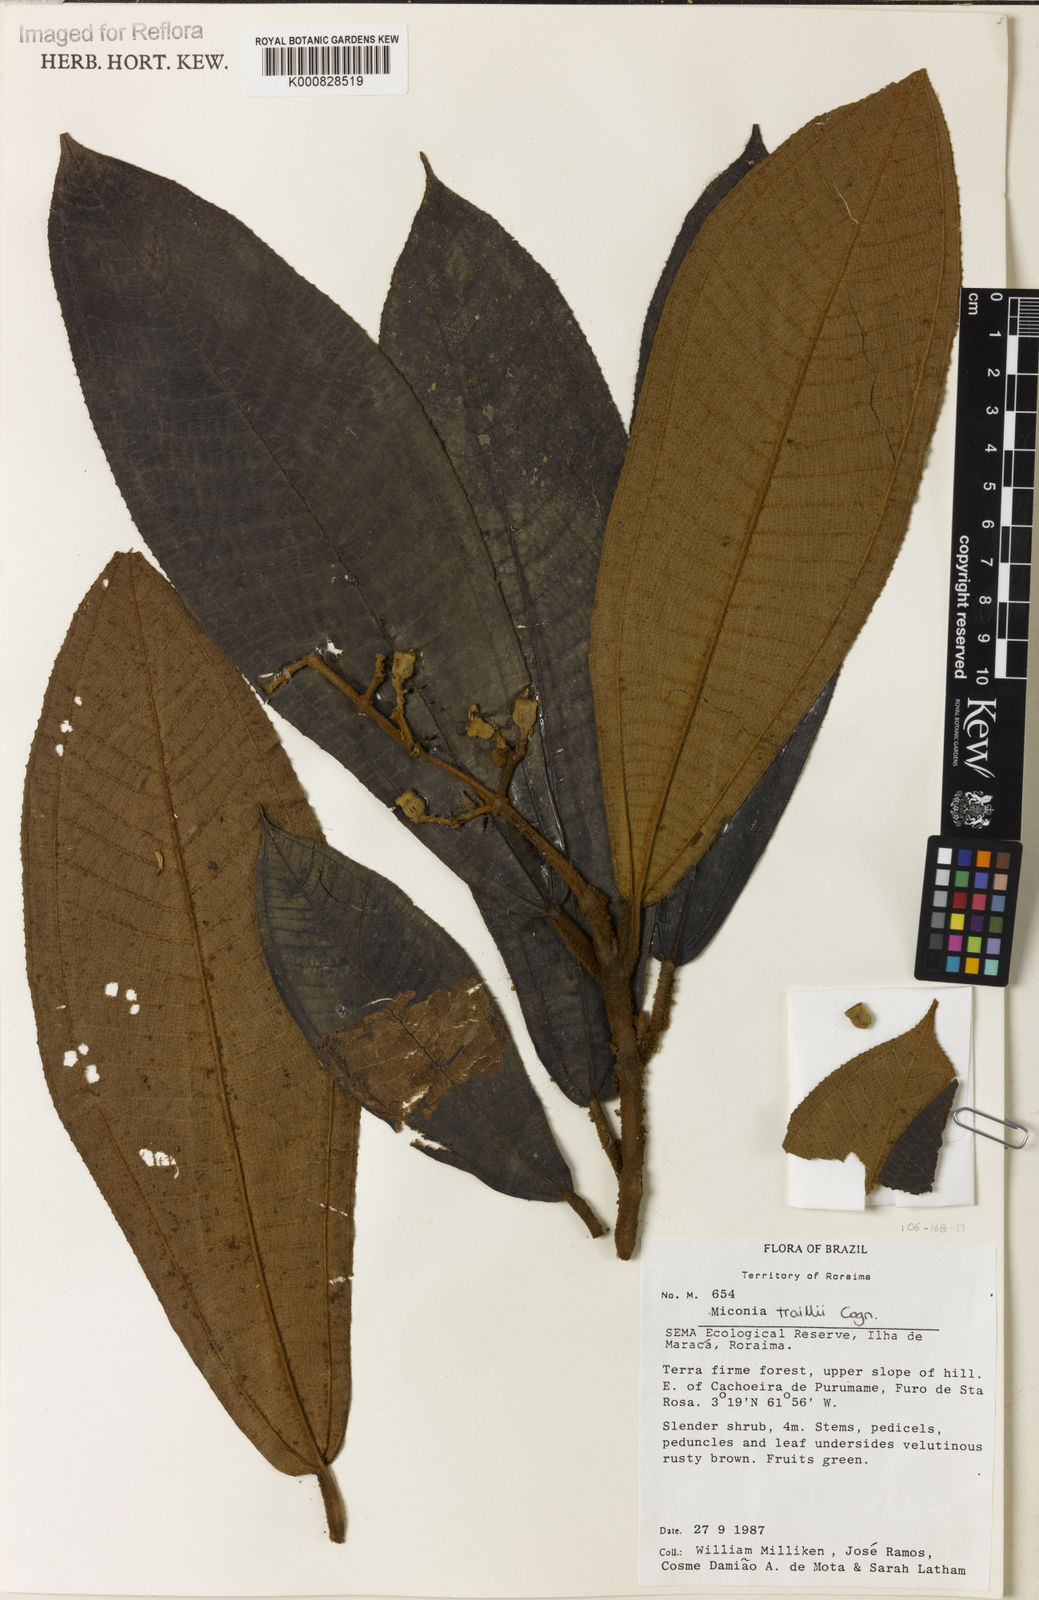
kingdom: Plantae
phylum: Tracheophyta
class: Magnoliopsida
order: Myrtales
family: Melastomataceae
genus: Miconia
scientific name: Miconia traillii
